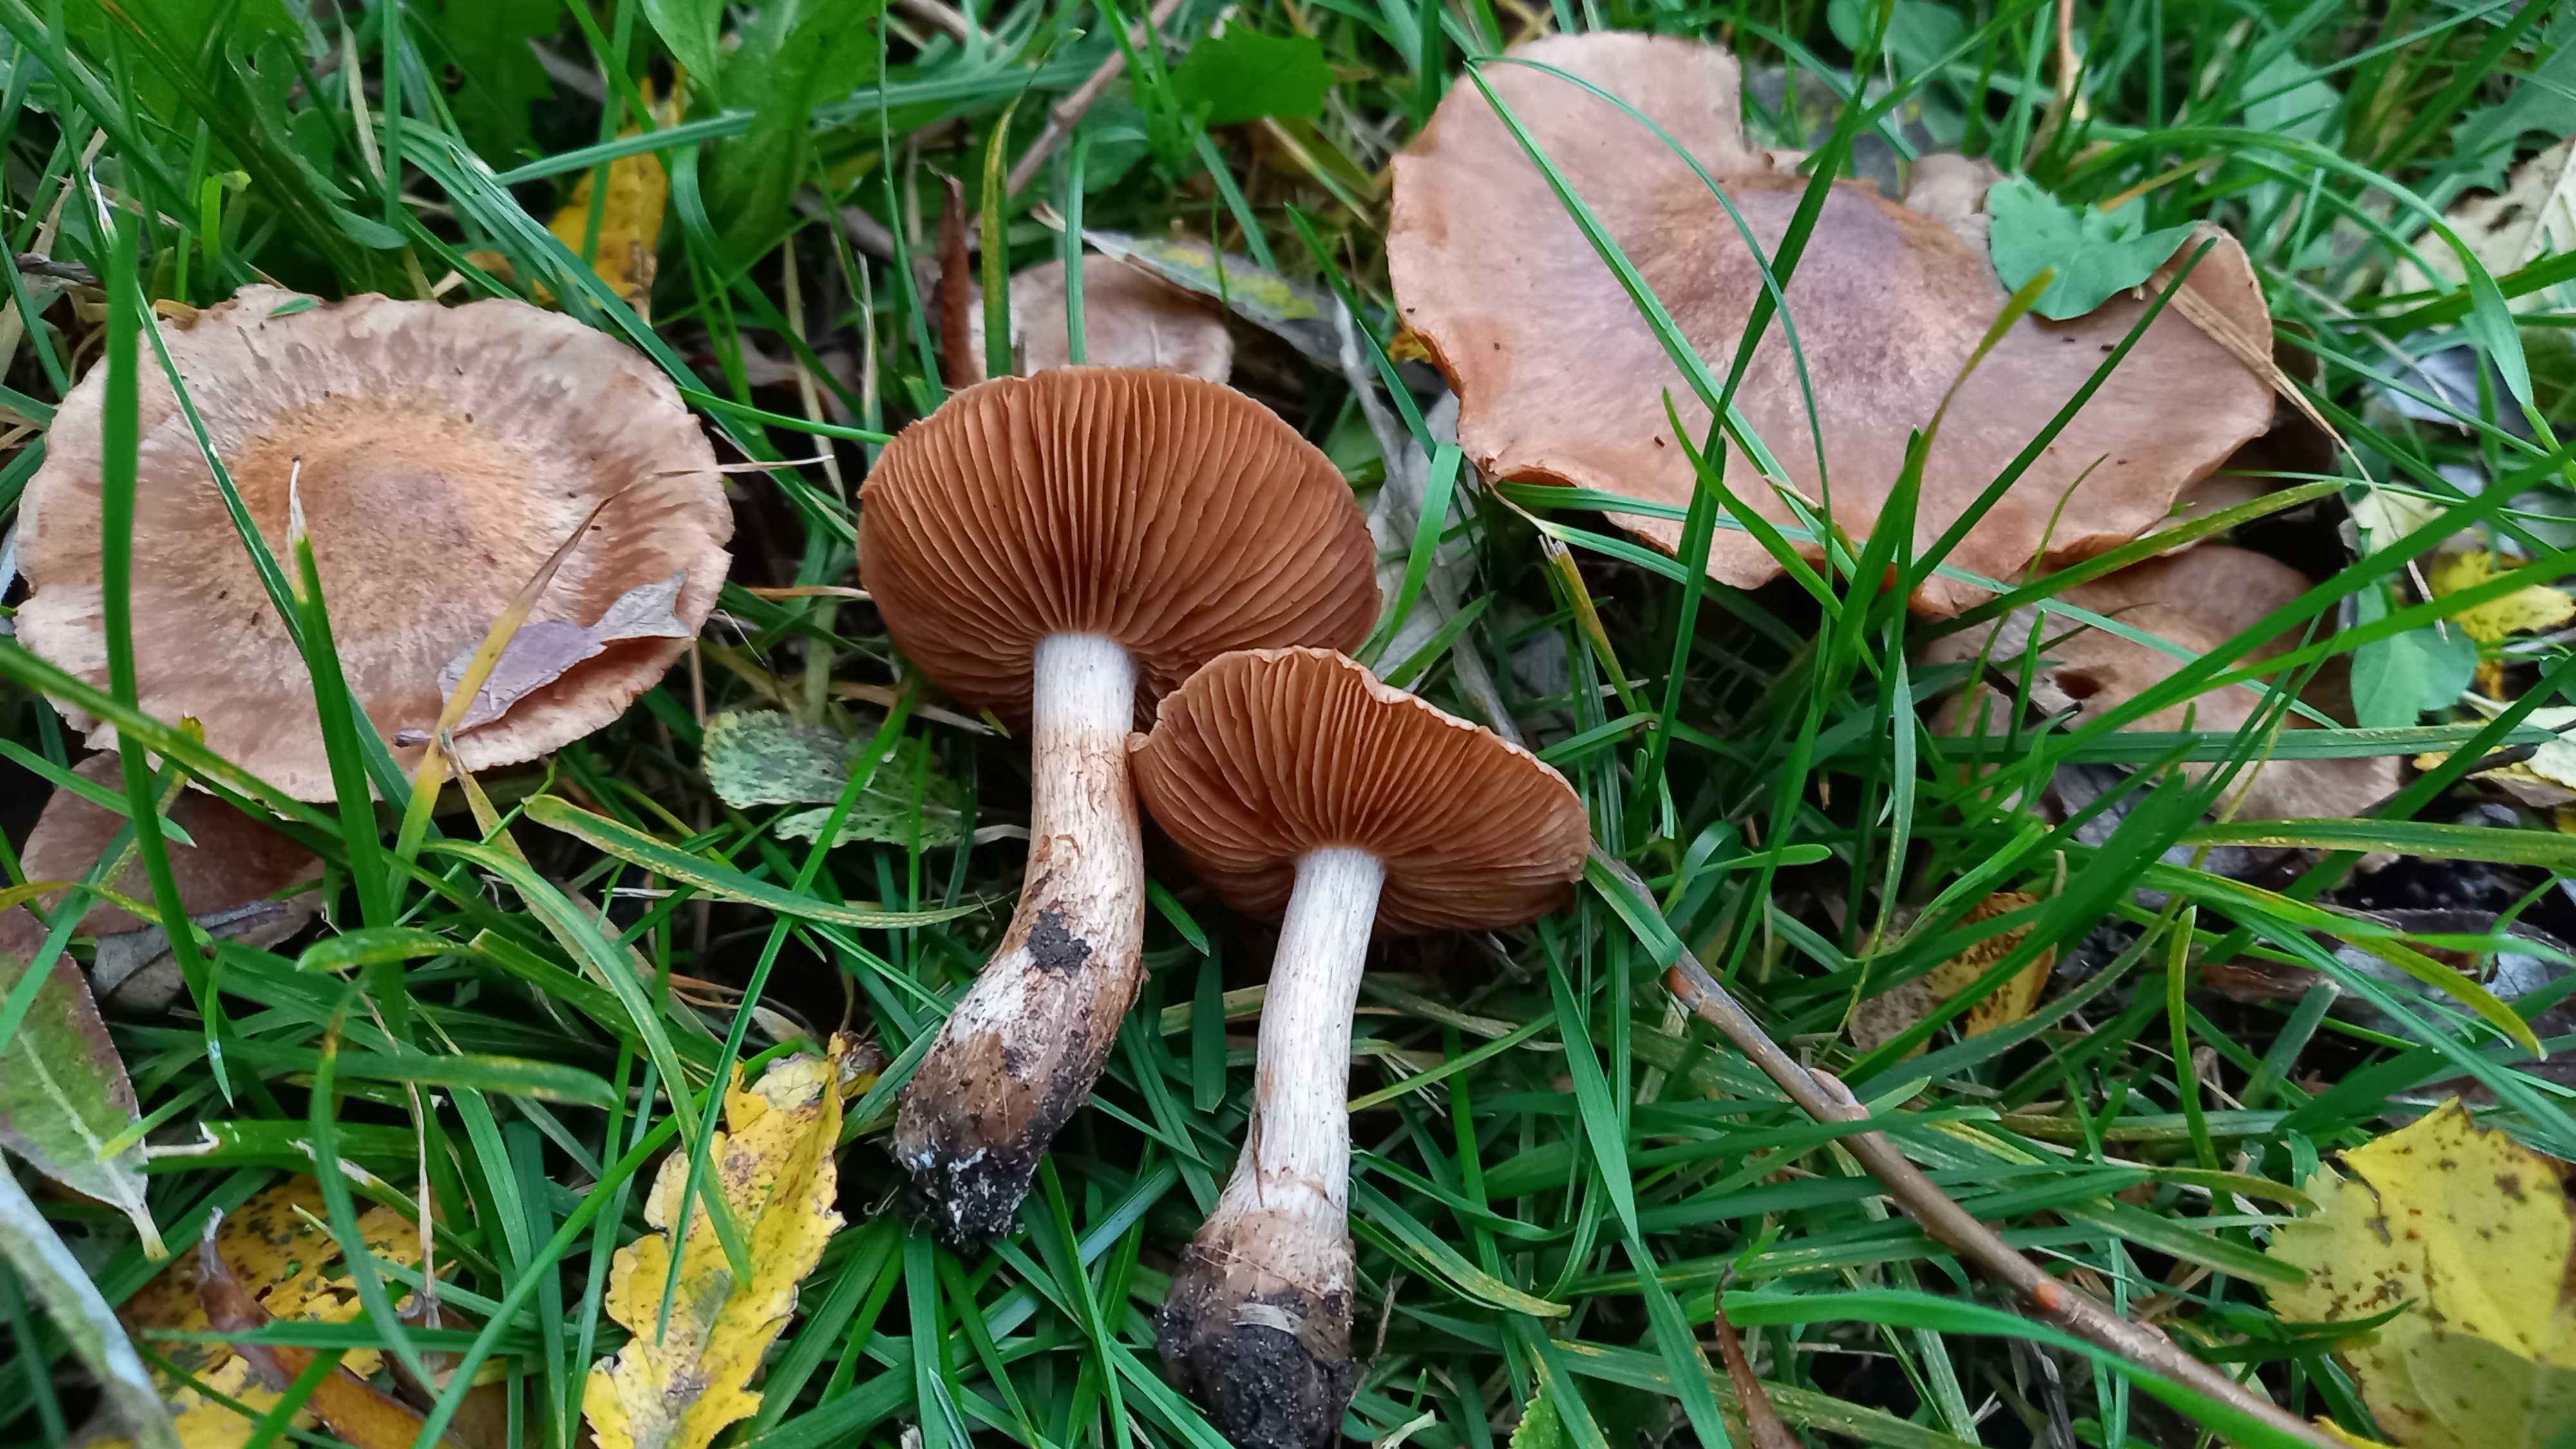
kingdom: Fungi
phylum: Basidiomycota
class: Agaricomycetes
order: Agaricales
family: Cortinariaceae
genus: Cortinarius
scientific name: Cortinarius
